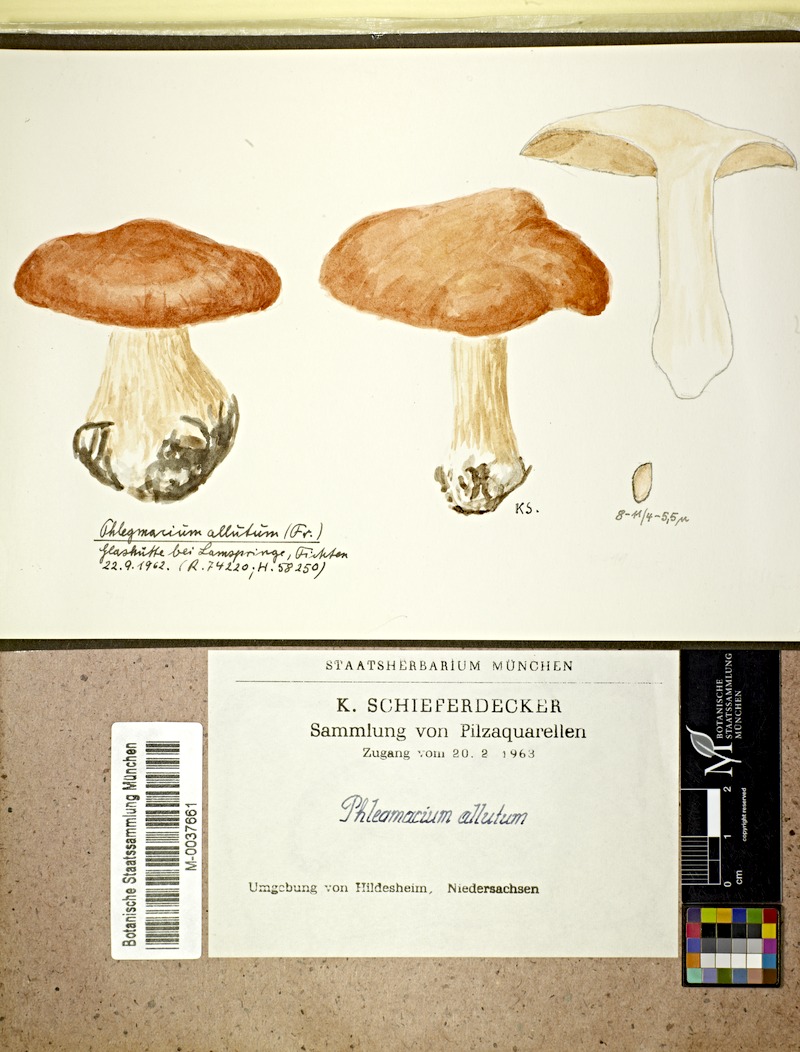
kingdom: Fungi
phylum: Basidiomycota
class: Agaricomycetes
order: Agaricales
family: Cortinariaceae
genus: Cortinarius
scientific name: Cortinarius allutus
